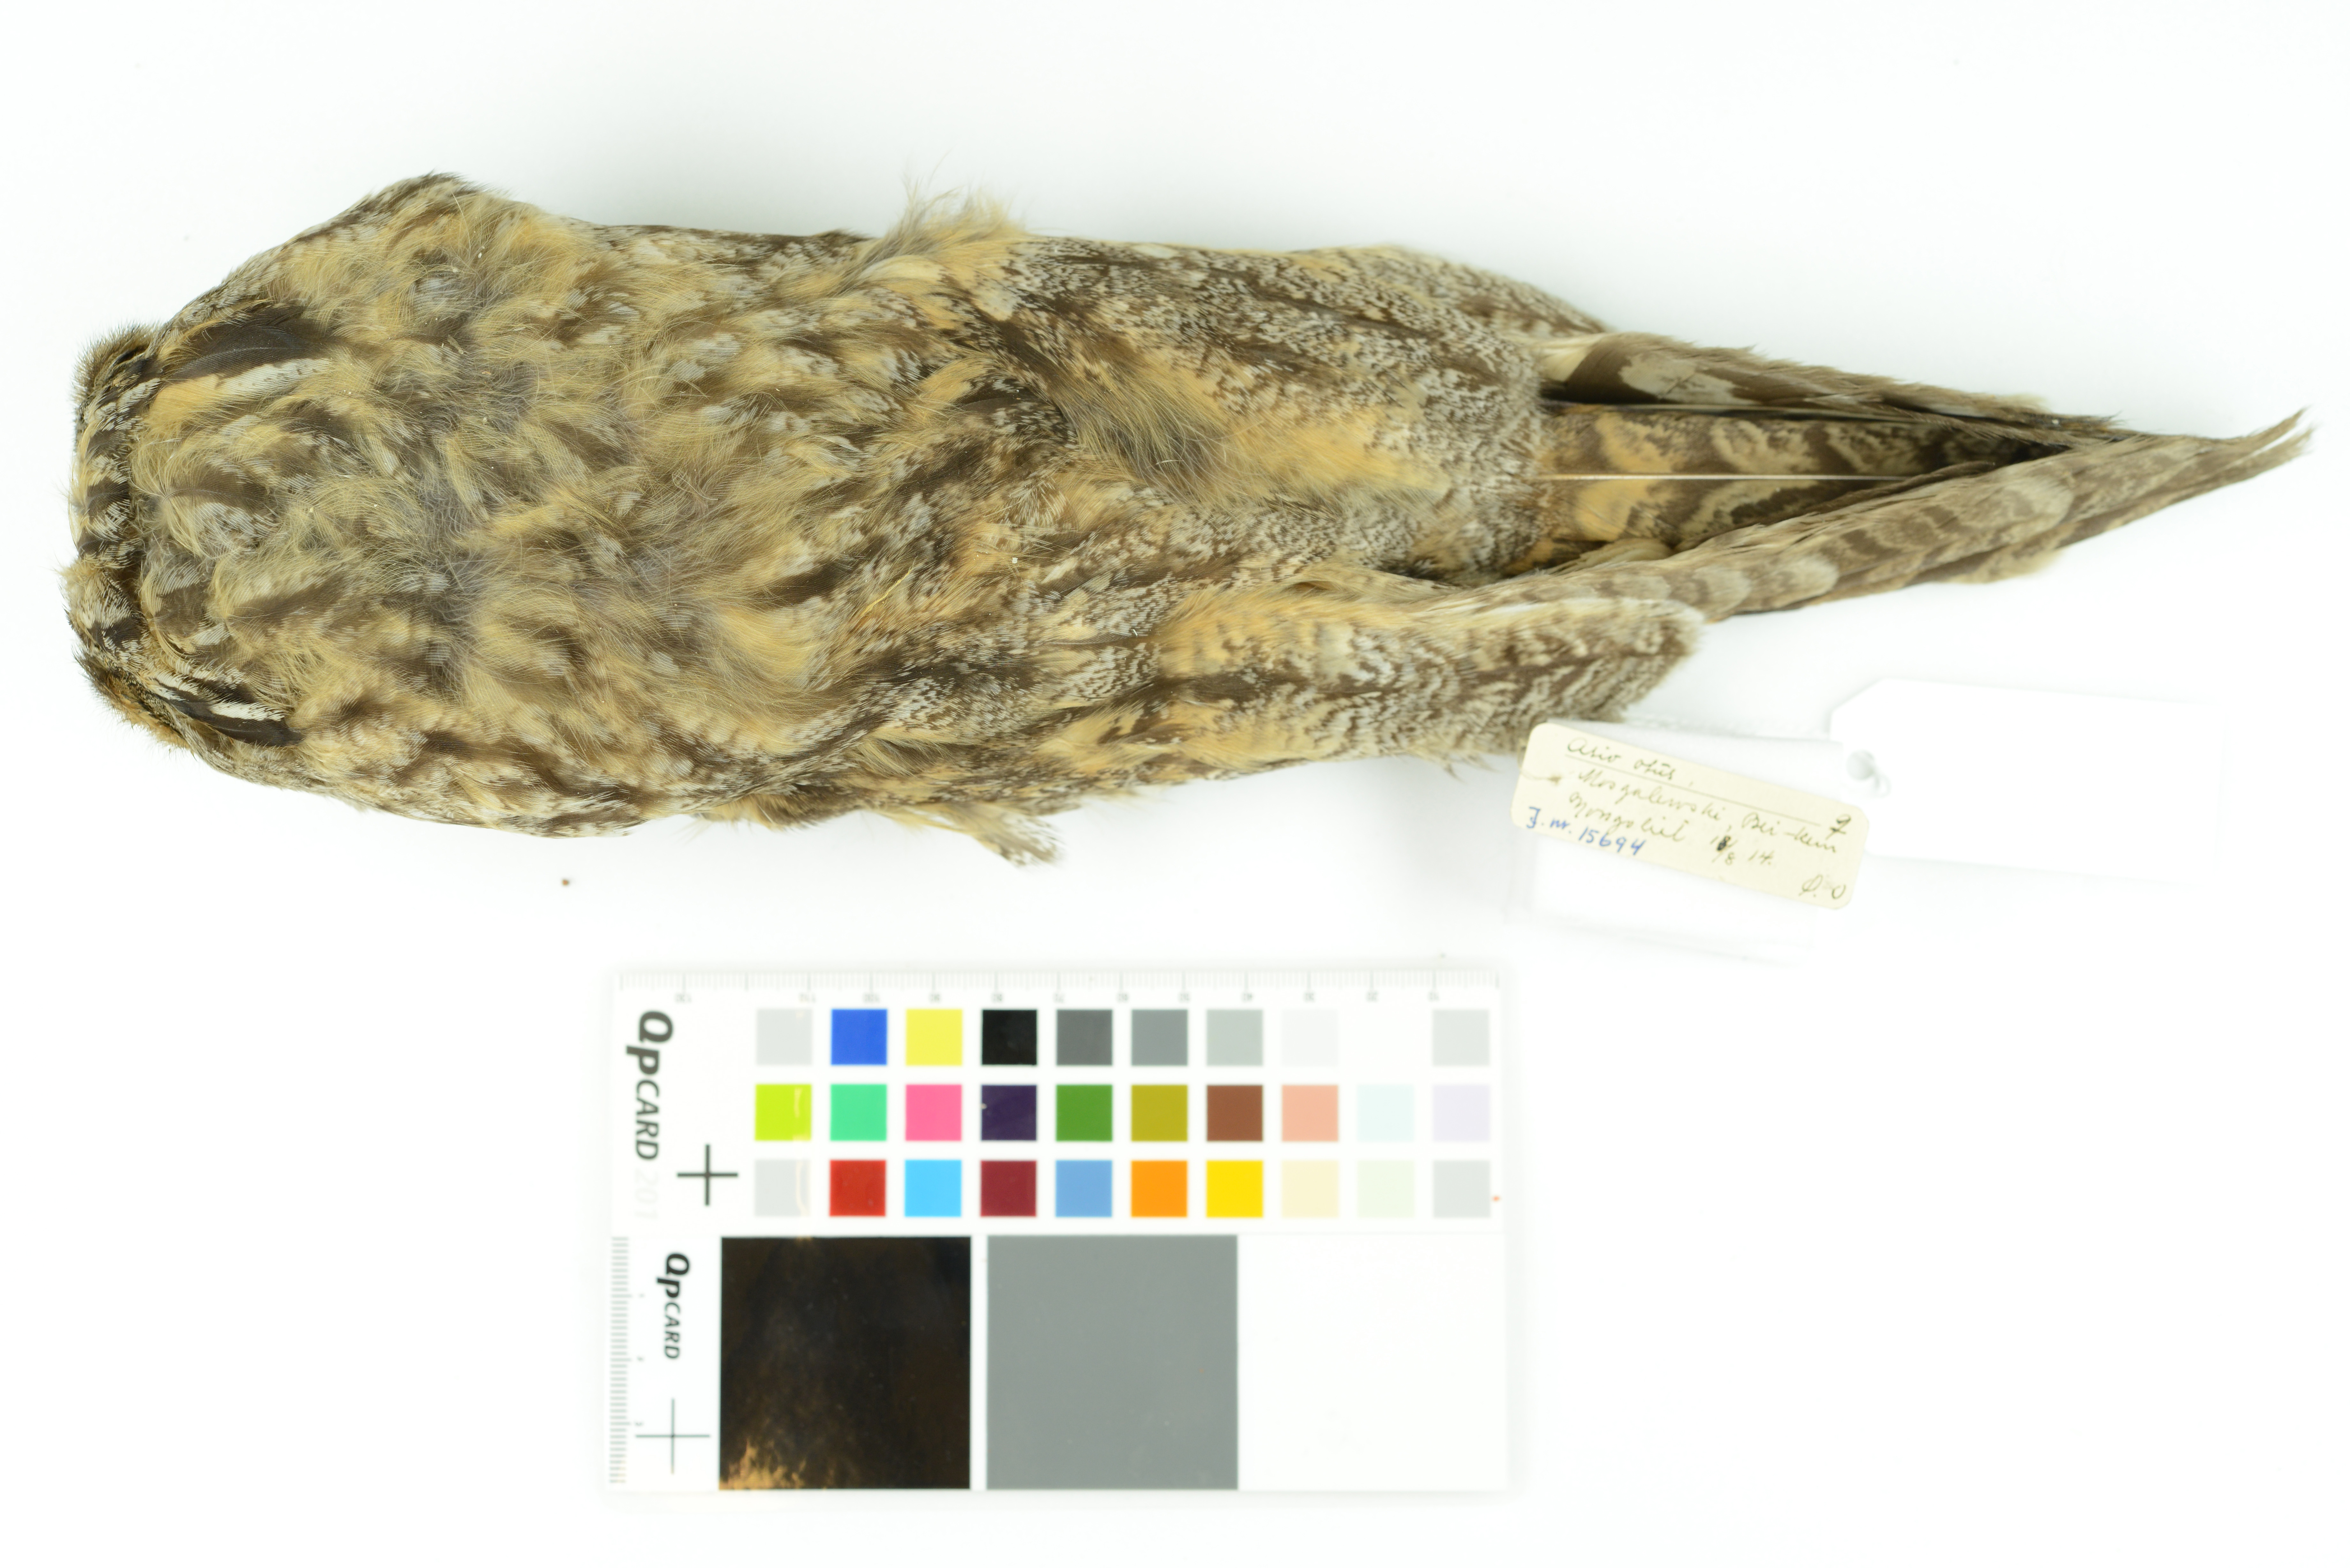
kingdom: Animalia
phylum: Chordata
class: Aves
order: Strigiformes
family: Strigidae
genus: Asio
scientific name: Asio otus
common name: Long-eared owl
